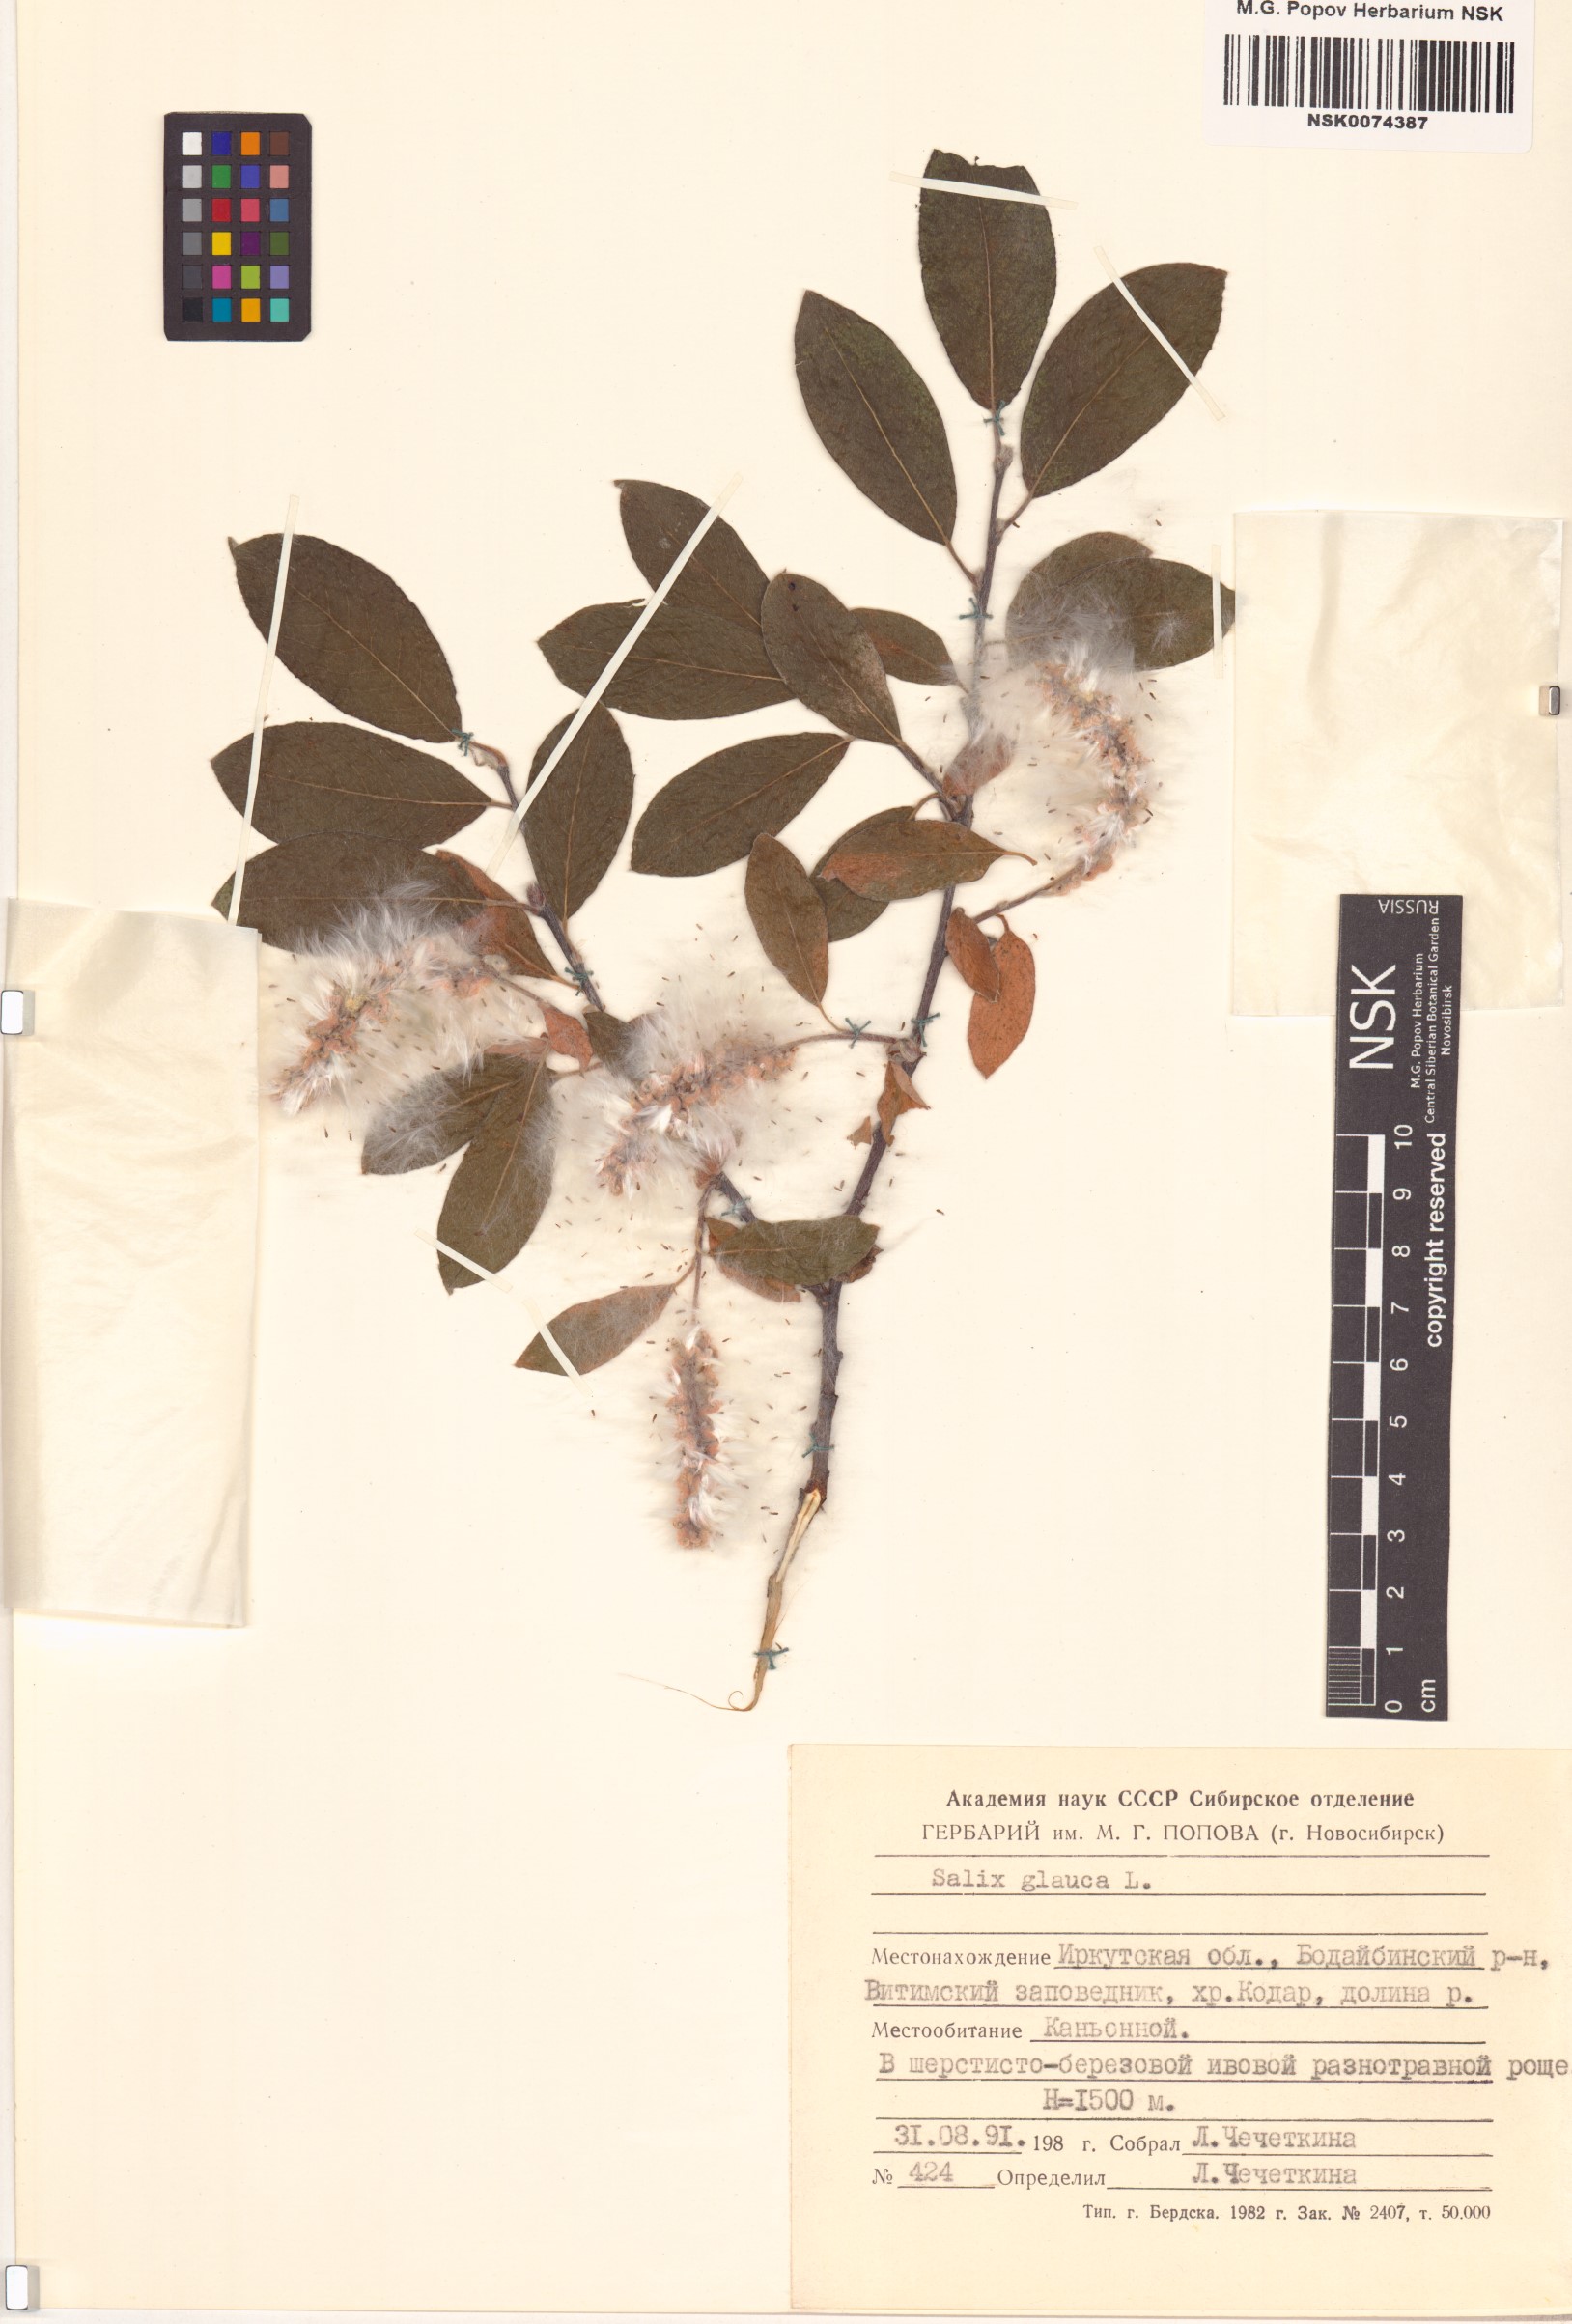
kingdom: Plantae
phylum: Tracheophyta
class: Magnoliopsida
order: Malpighiales
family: Salicaceae
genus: Salix
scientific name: Salix glauca
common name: Glaucous willow
